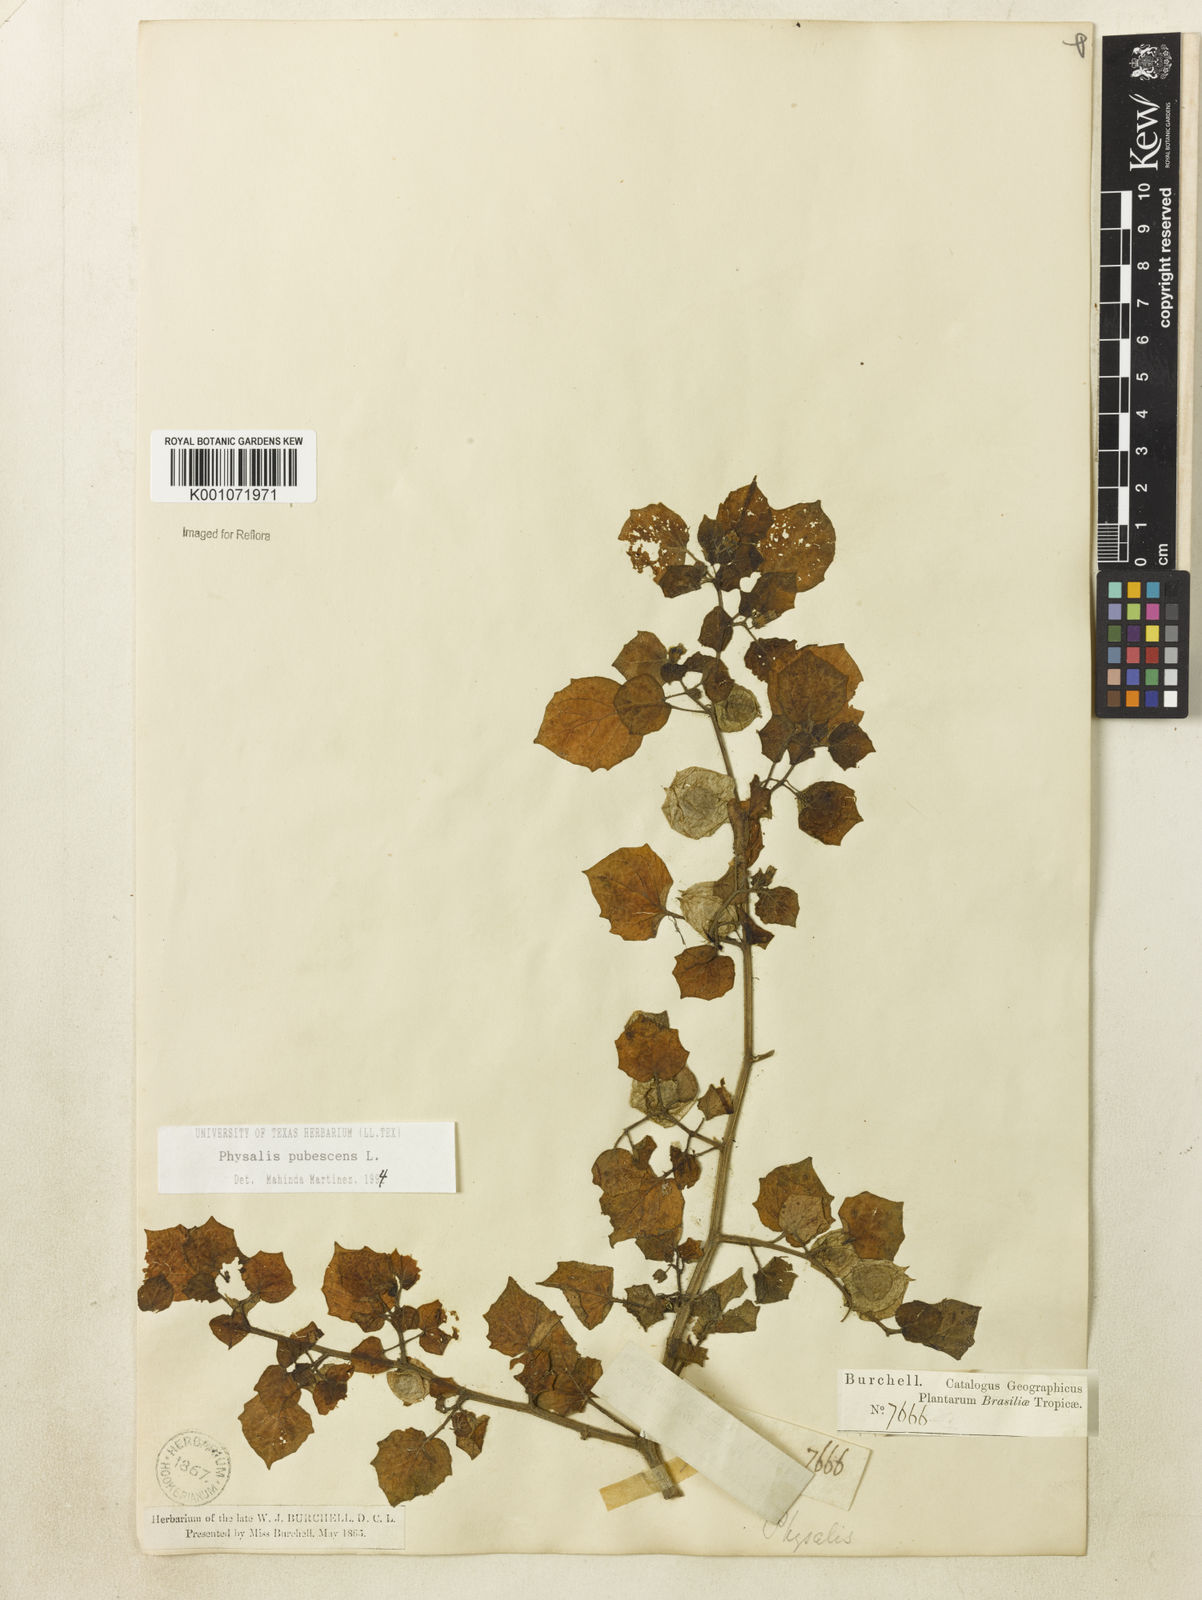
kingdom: Plantae
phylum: Tracheophyta
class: Magnoliopsida
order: Solanales
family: Solanaceae
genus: Physalis
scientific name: Physalis pubescens
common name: Downy ground-cherry
